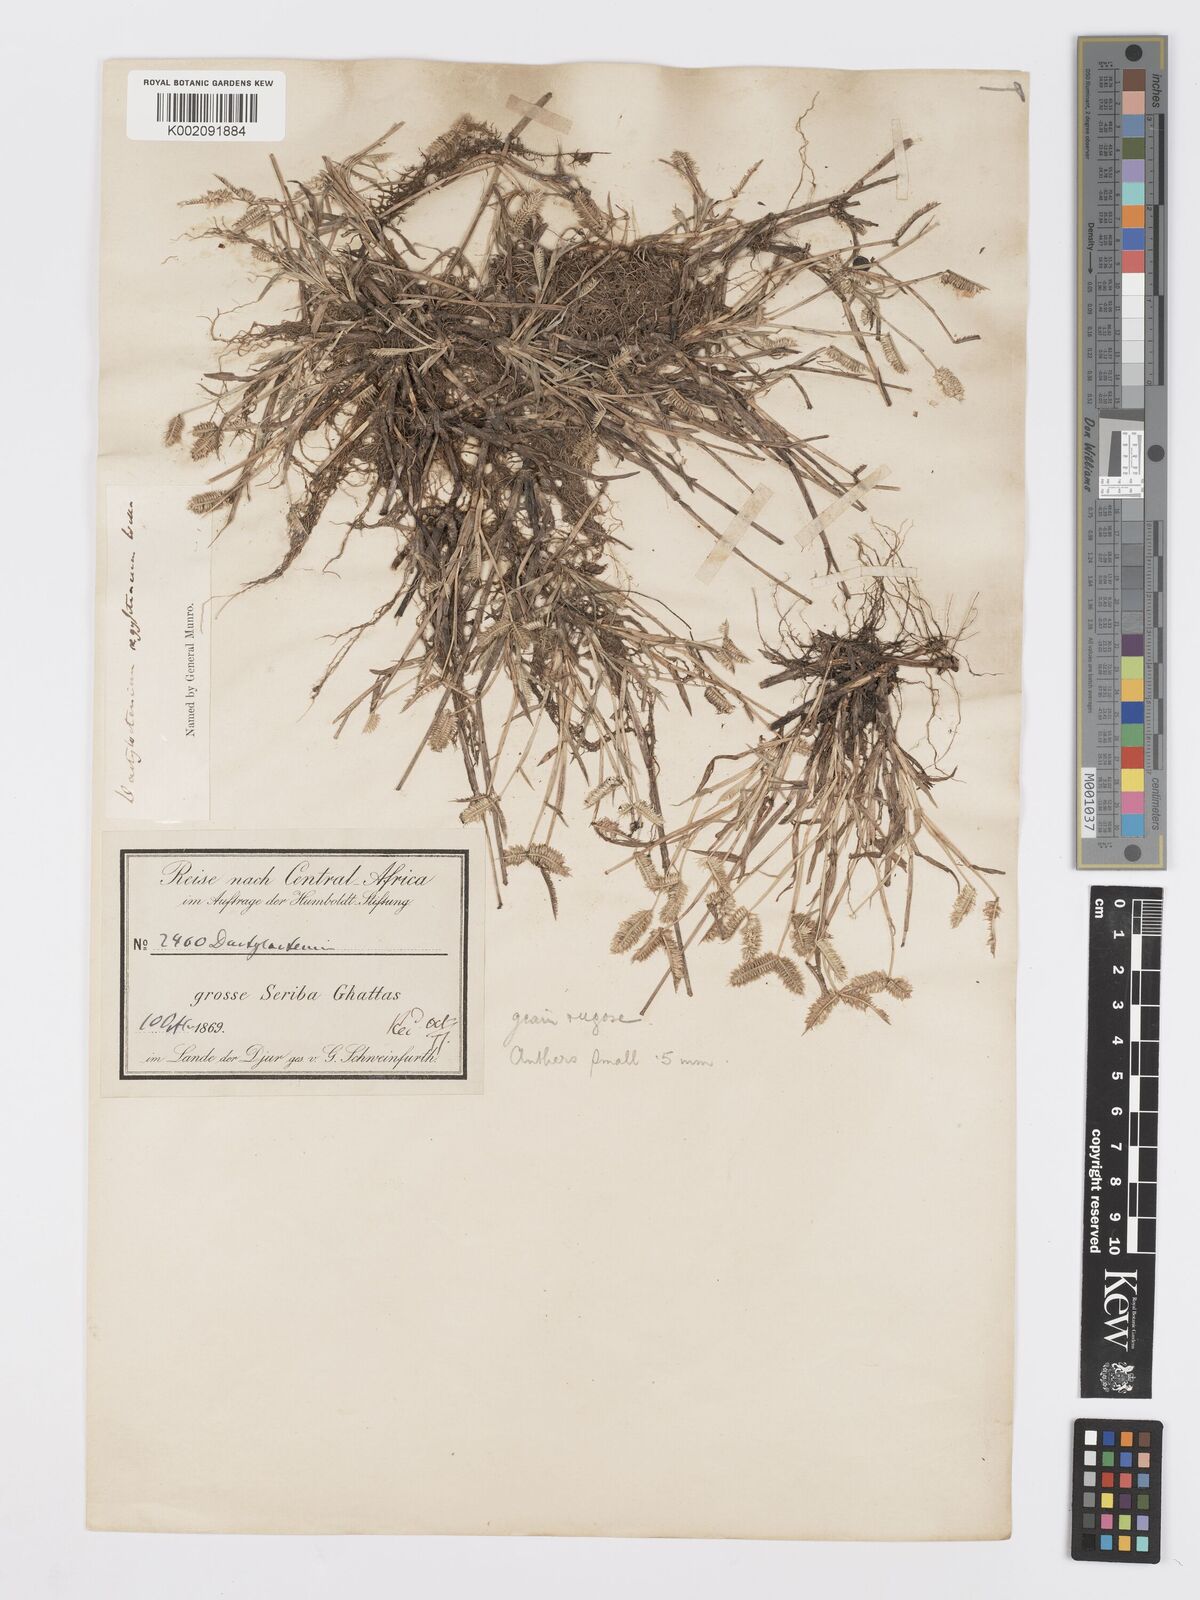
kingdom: Plantae
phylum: Tracheophyta
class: Liliopsida
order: Poales
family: Poaceae
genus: Dactyloctenium
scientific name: Dactyloctenium aegyptium
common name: Egyptian grass
